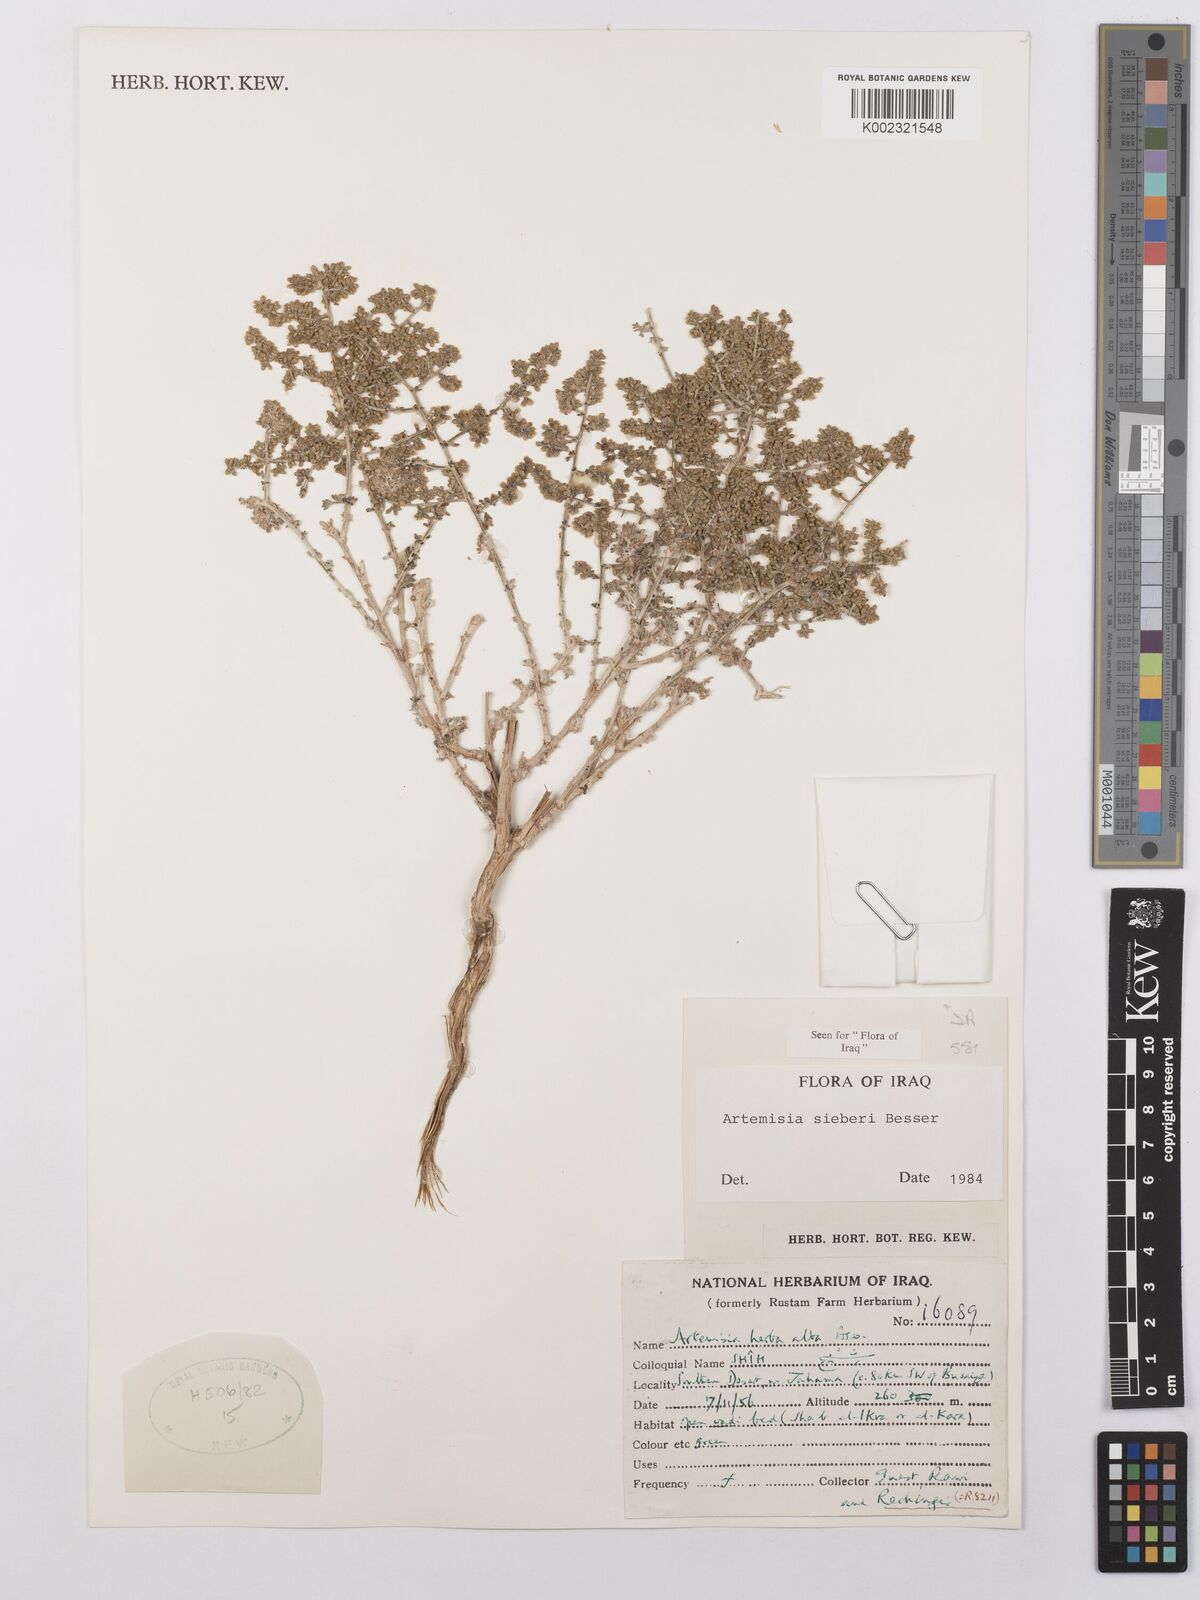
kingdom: Plantae
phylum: Tracheophyta
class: Magnoliopsida
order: Asterales
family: Asteraceae
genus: Artemisia
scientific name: Artemisia sieberi
